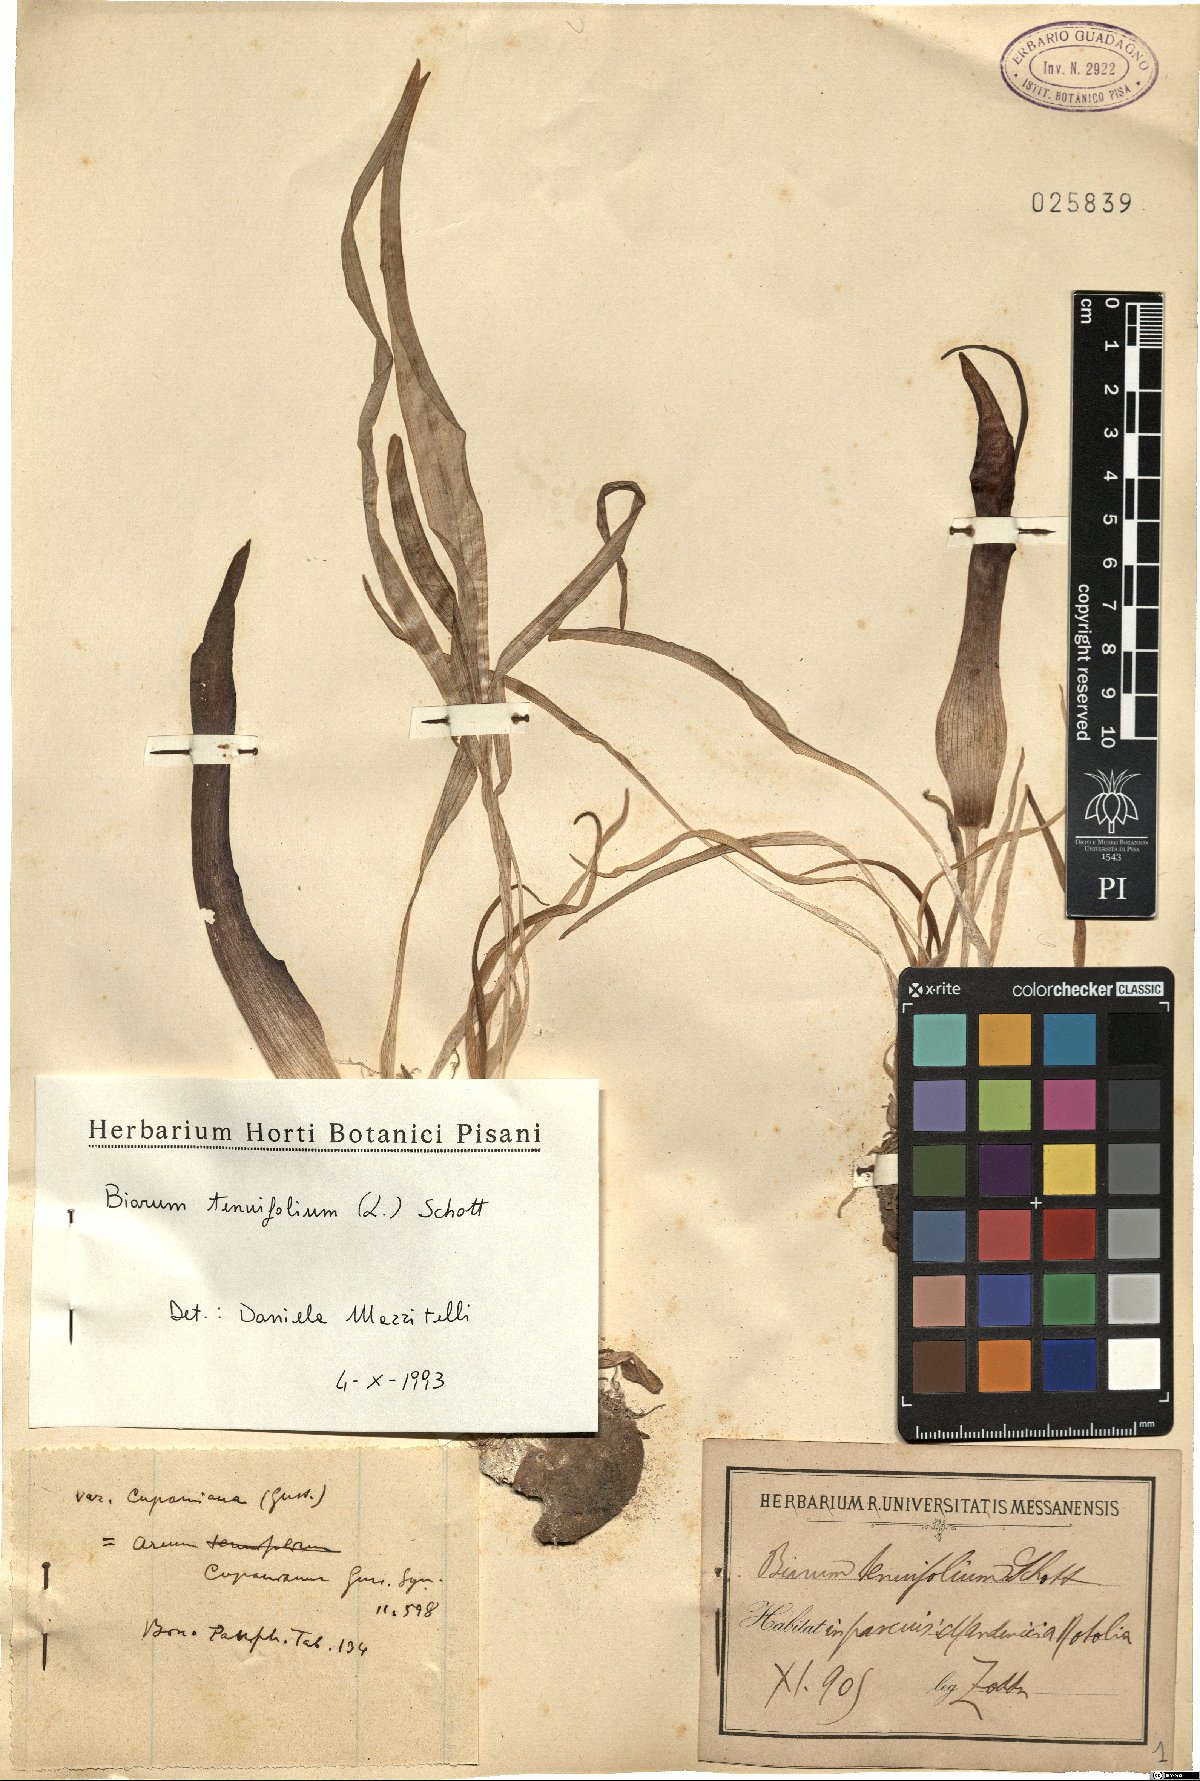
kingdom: Plantae
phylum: Tracheophyta
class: Liliopsida
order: Alismatales
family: Araceae
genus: Biarum
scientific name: Biarum tenuifolium
